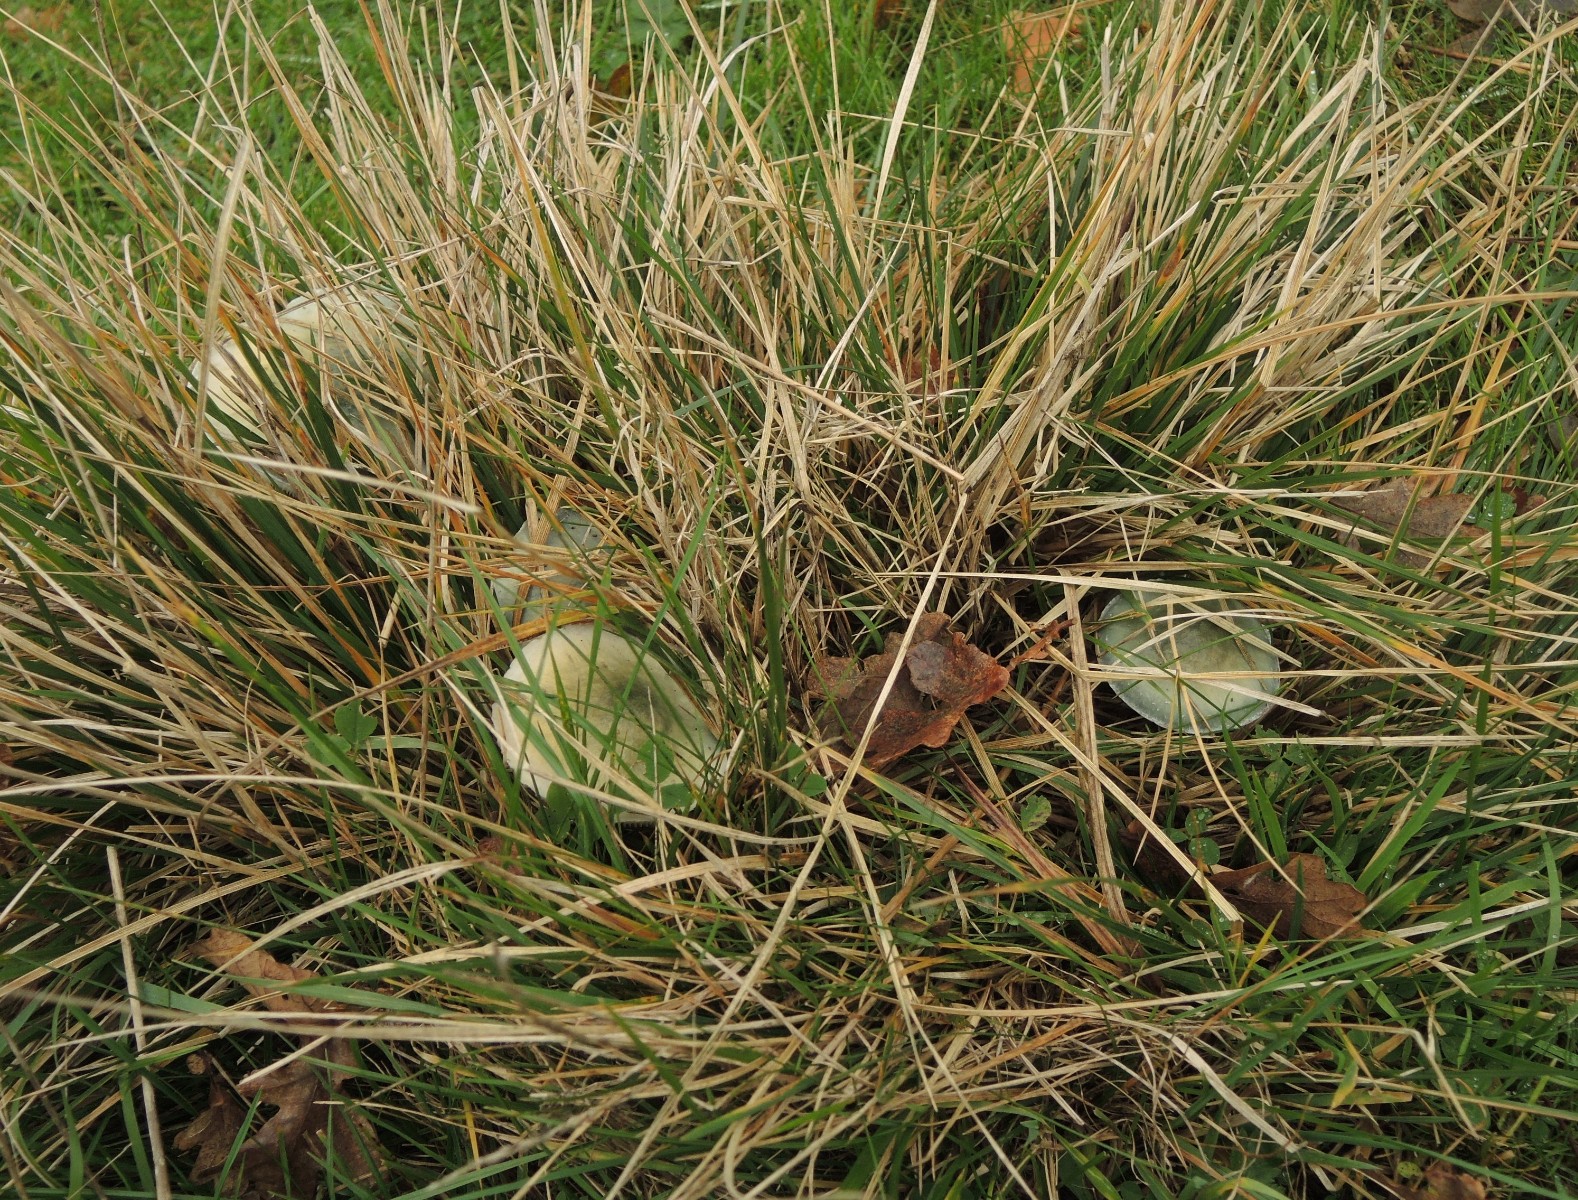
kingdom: Fungi
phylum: Basidiomycota
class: Agaricomycetes
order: Agaricales
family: Strophariaceae
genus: Stropharia
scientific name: Stropharia pseudocyanea
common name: blegblå bredblad
